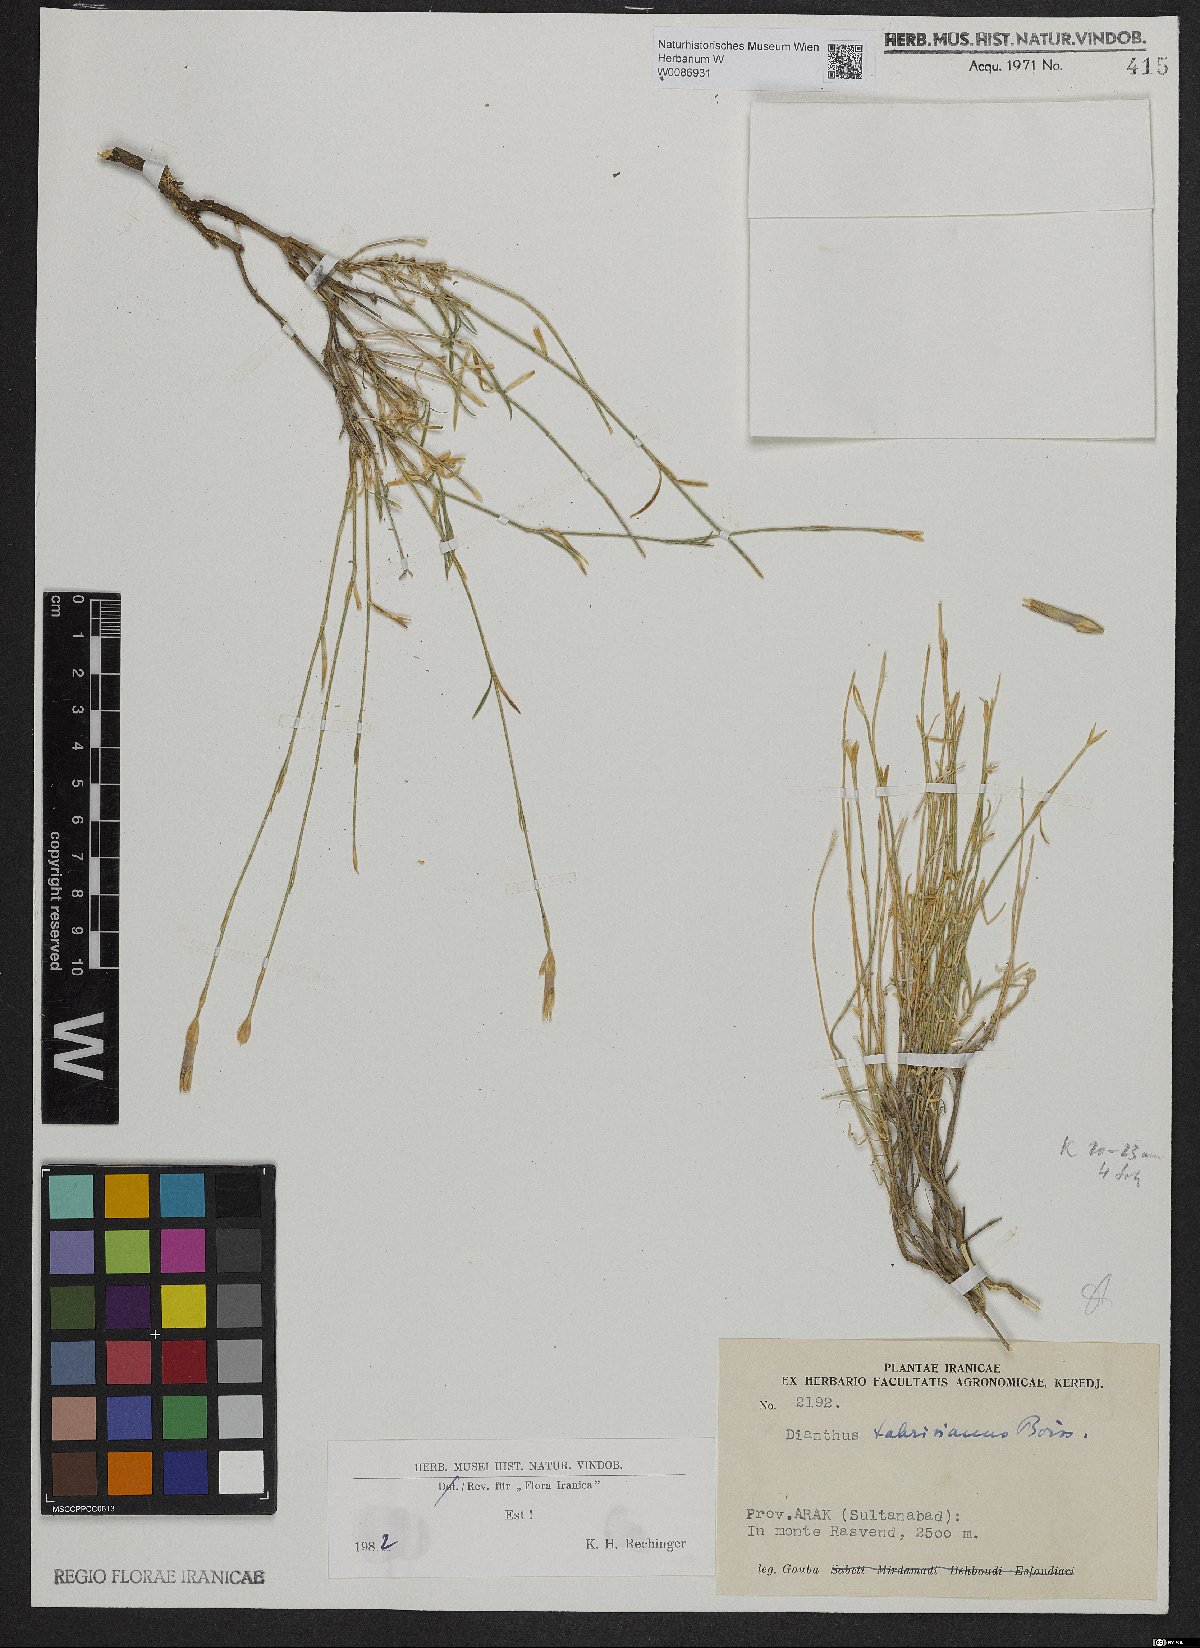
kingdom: Plantae
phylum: Tracheophyta
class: Liliopsida
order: Poales
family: Poaceae
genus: Pseudoroegneria
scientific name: Pseudoroegneria kosaninii
